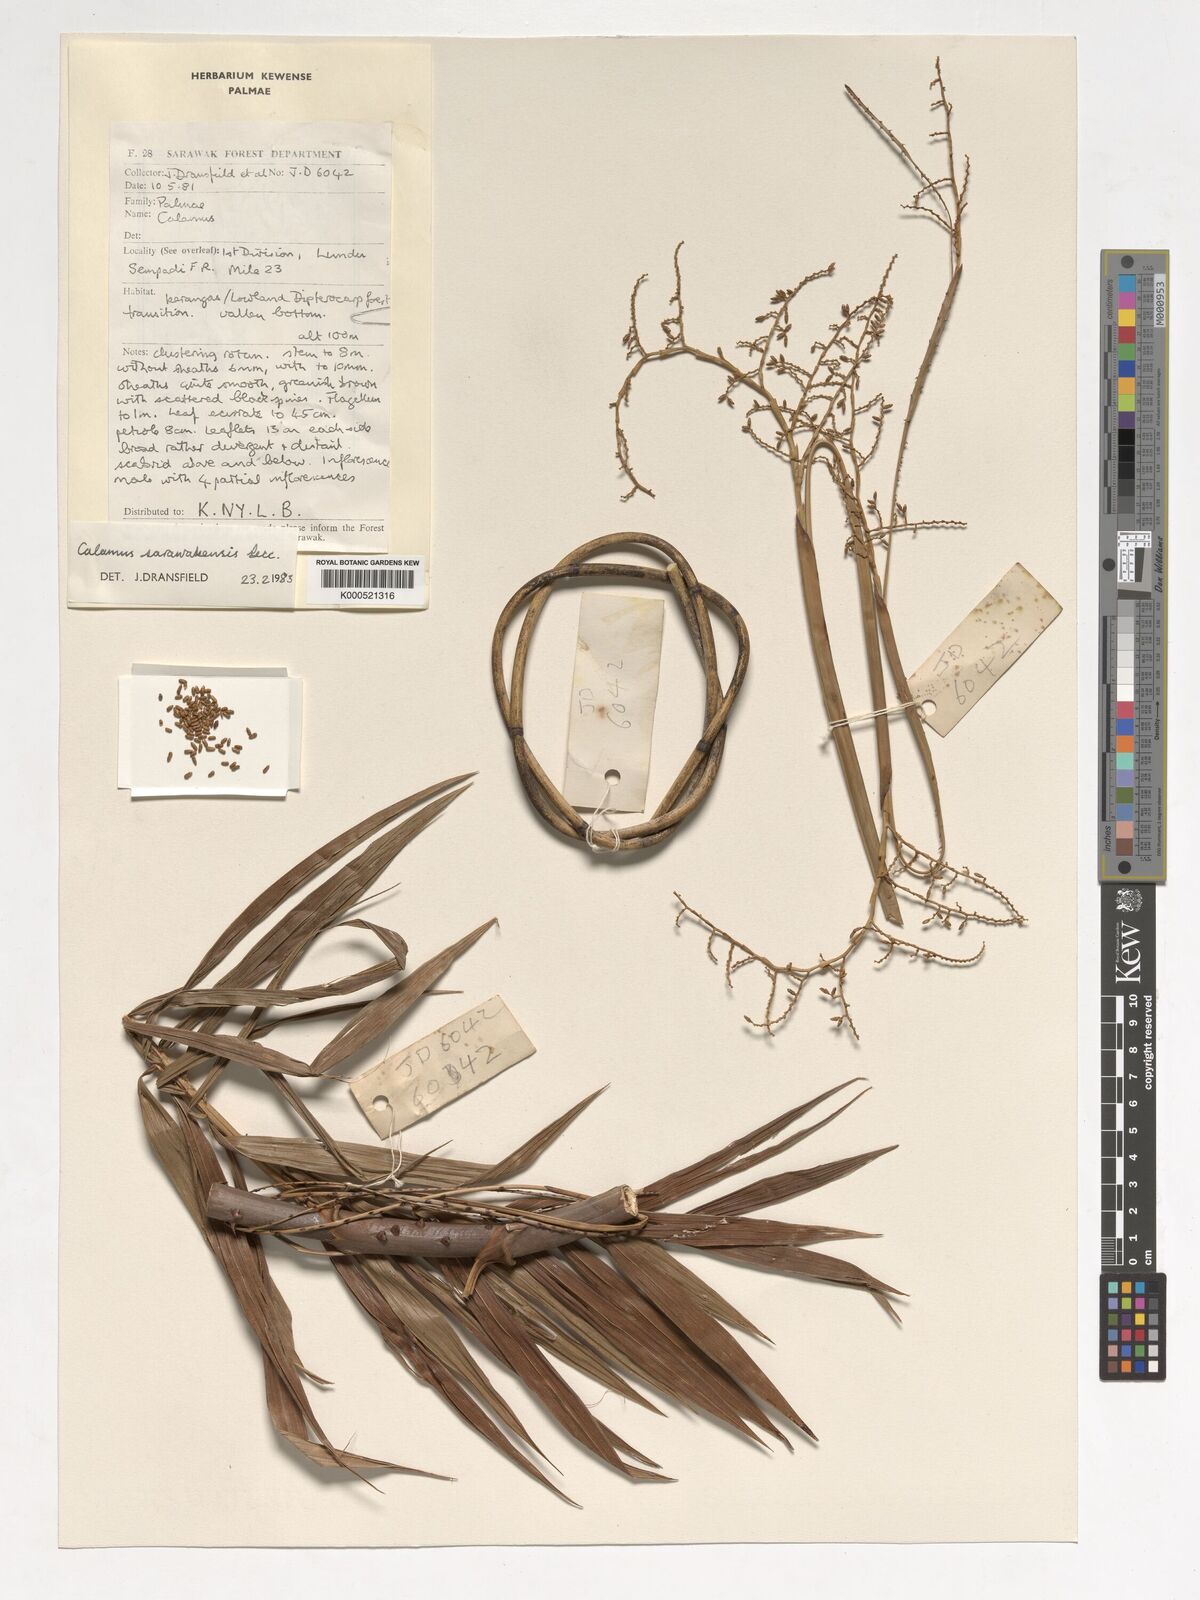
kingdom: Plantae
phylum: Tracheophyta
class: Liliopsida
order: Arecales
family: Arecaceae
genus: Calamus
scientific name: Calamus sarawakensis
